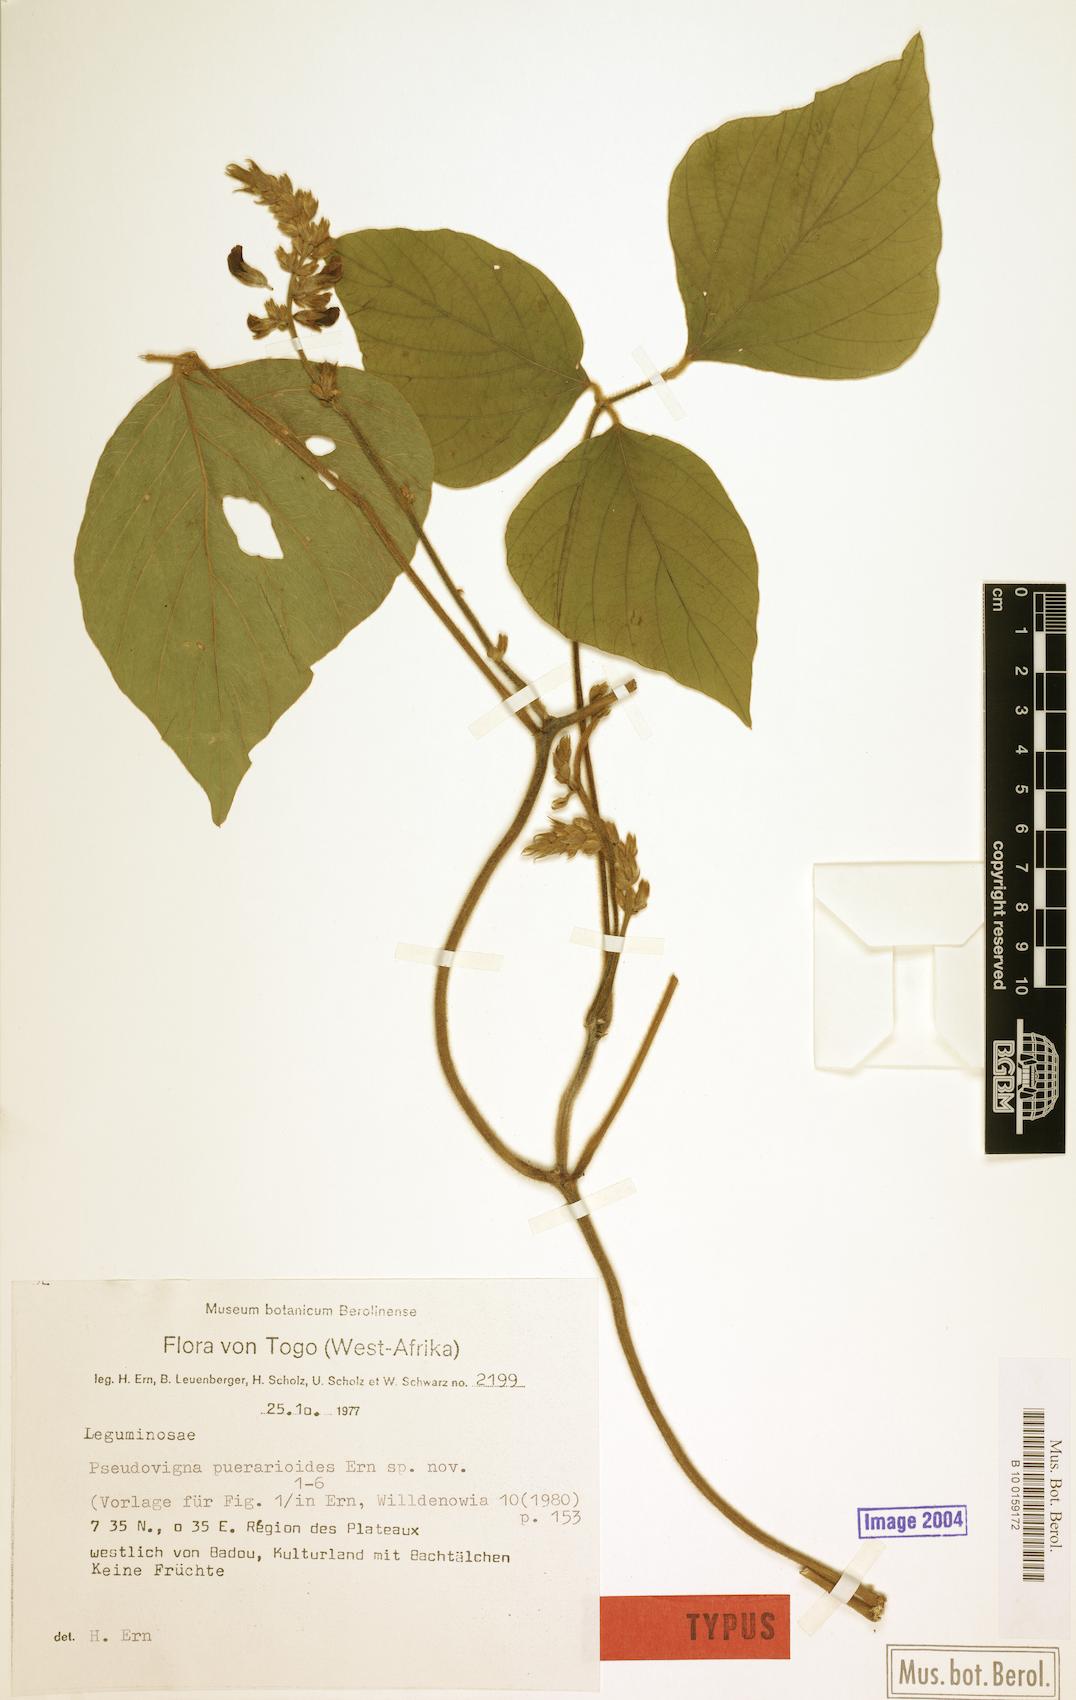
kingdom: Plantae
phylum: Tracheophyta
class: Magnoliopsida
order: Fabales
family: Fabaceae
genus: Pseudovigna
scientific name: Pseudovigna puerarioides
